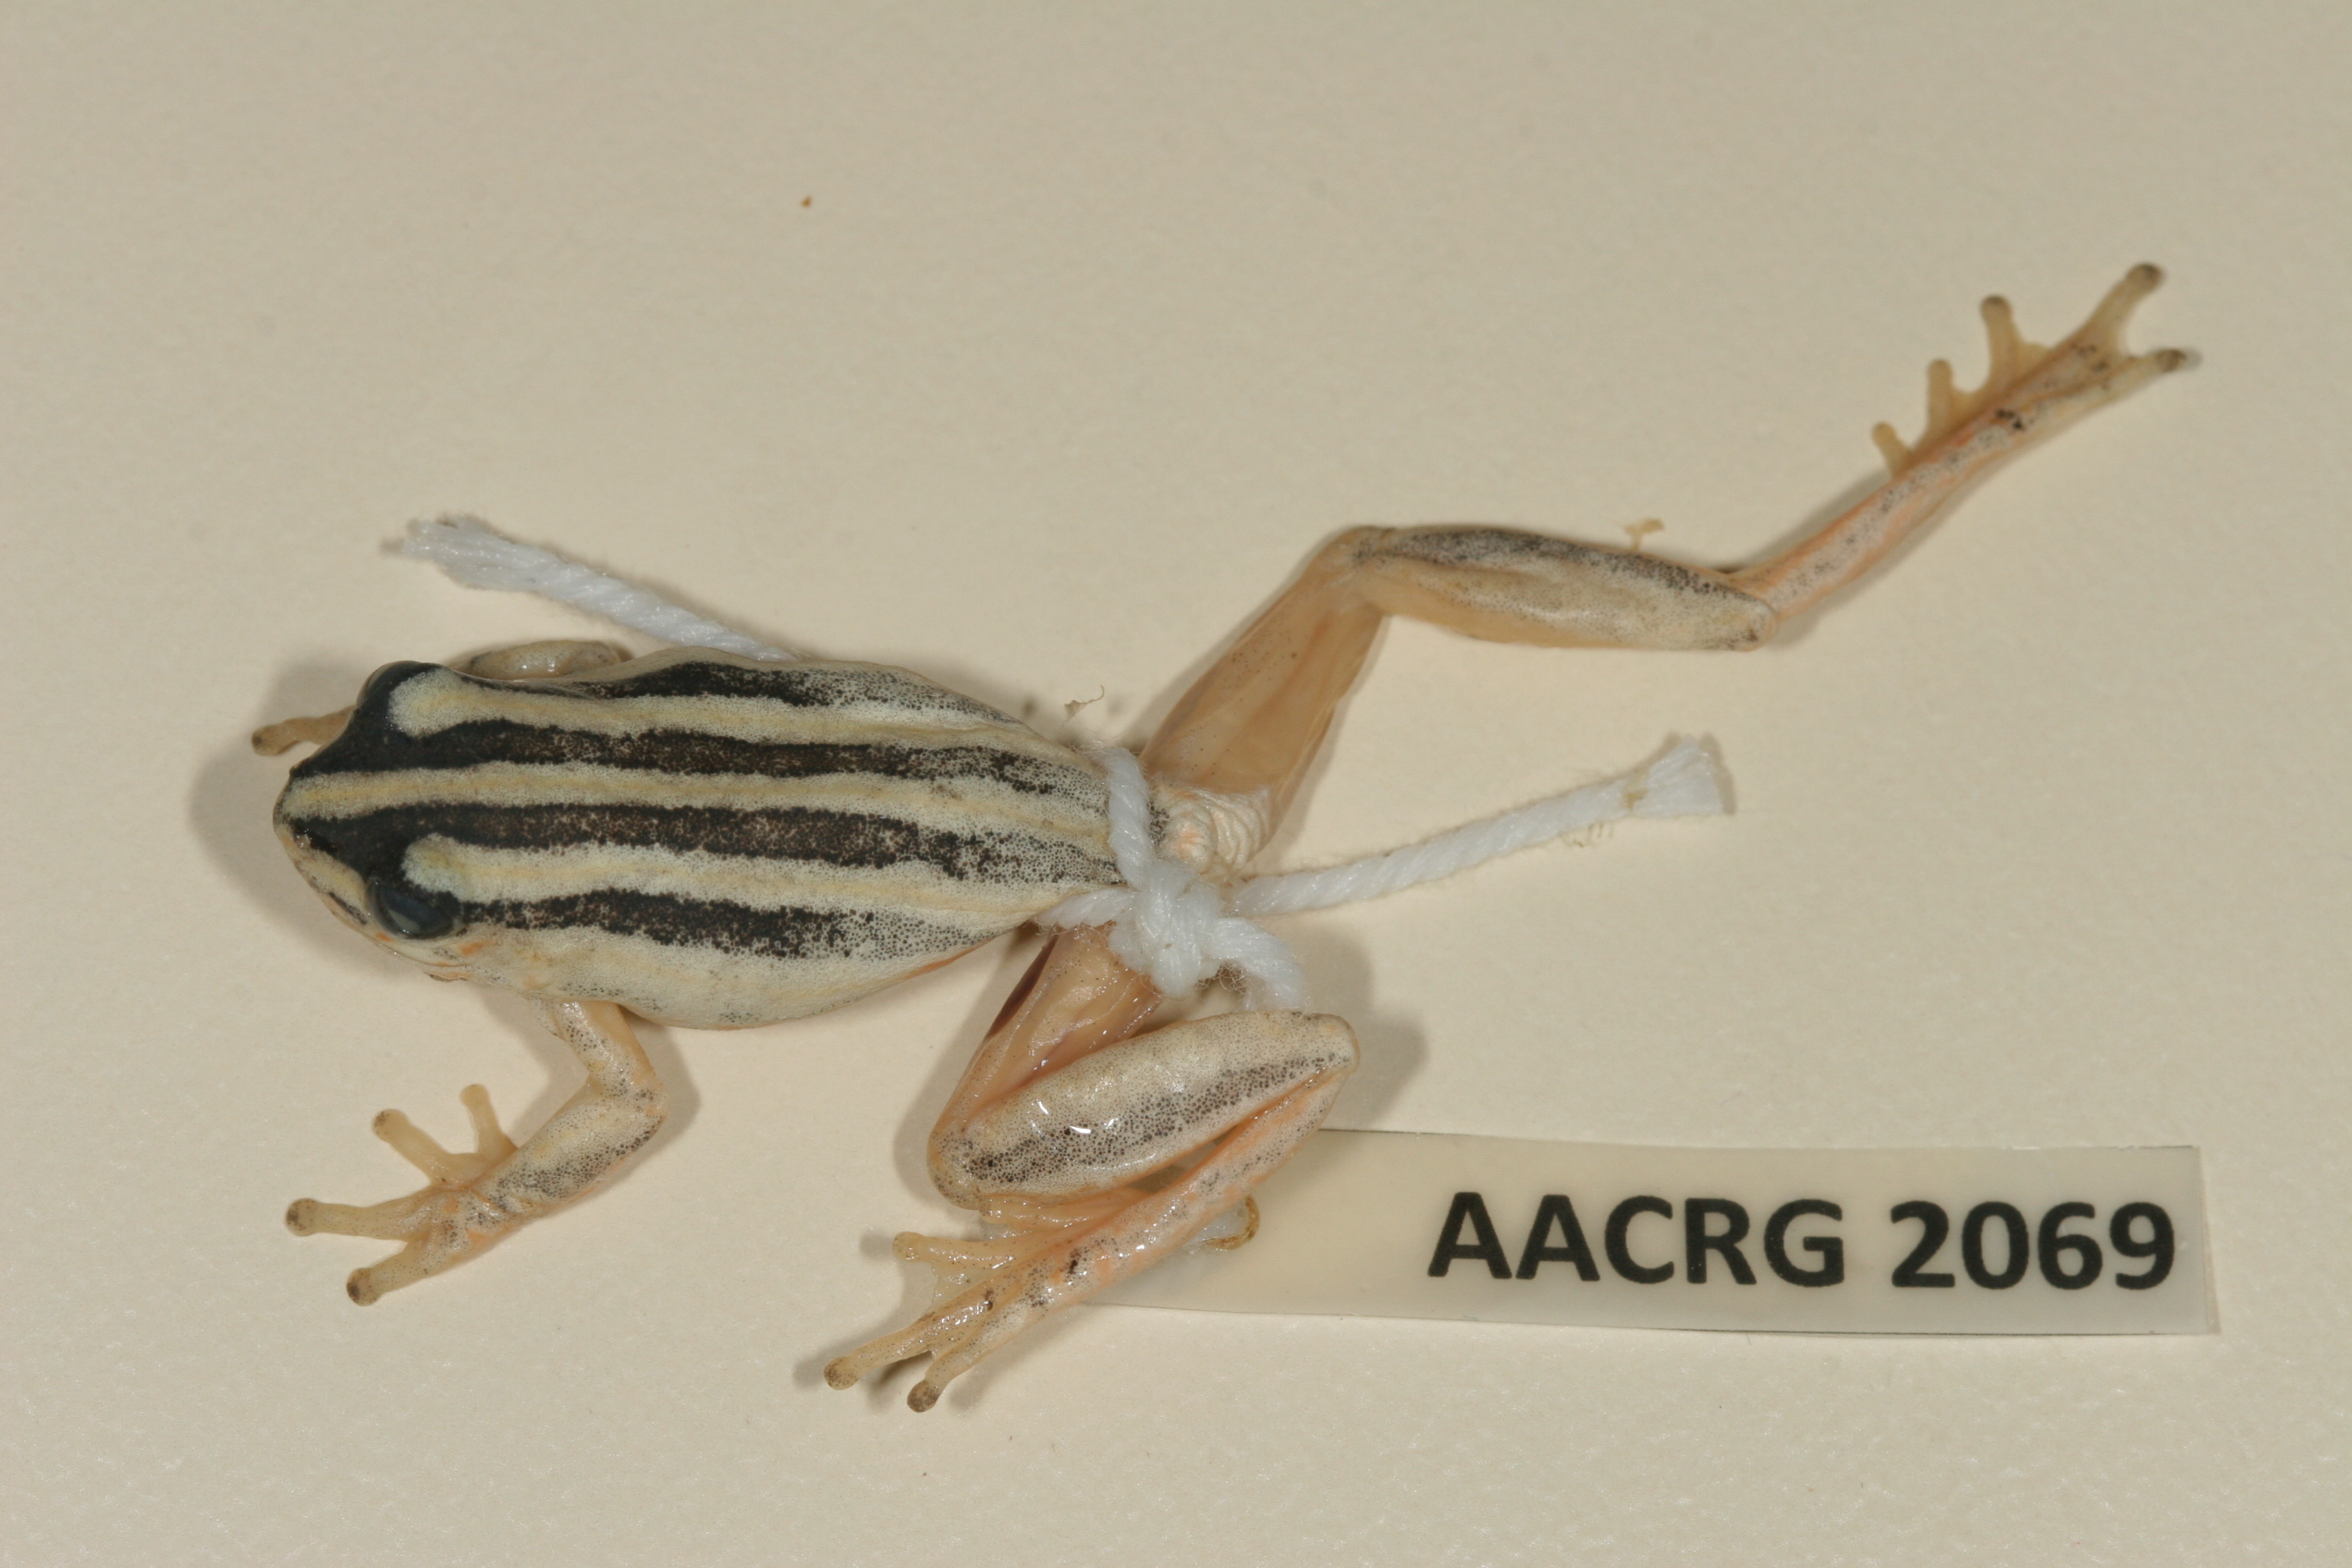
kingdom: Animalia
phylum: Chordata
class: Amphibia
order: Anura
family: Hyperoliidae
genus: Hyperolius
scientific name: Hyperolius marmoratus
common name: Painted reed frog
